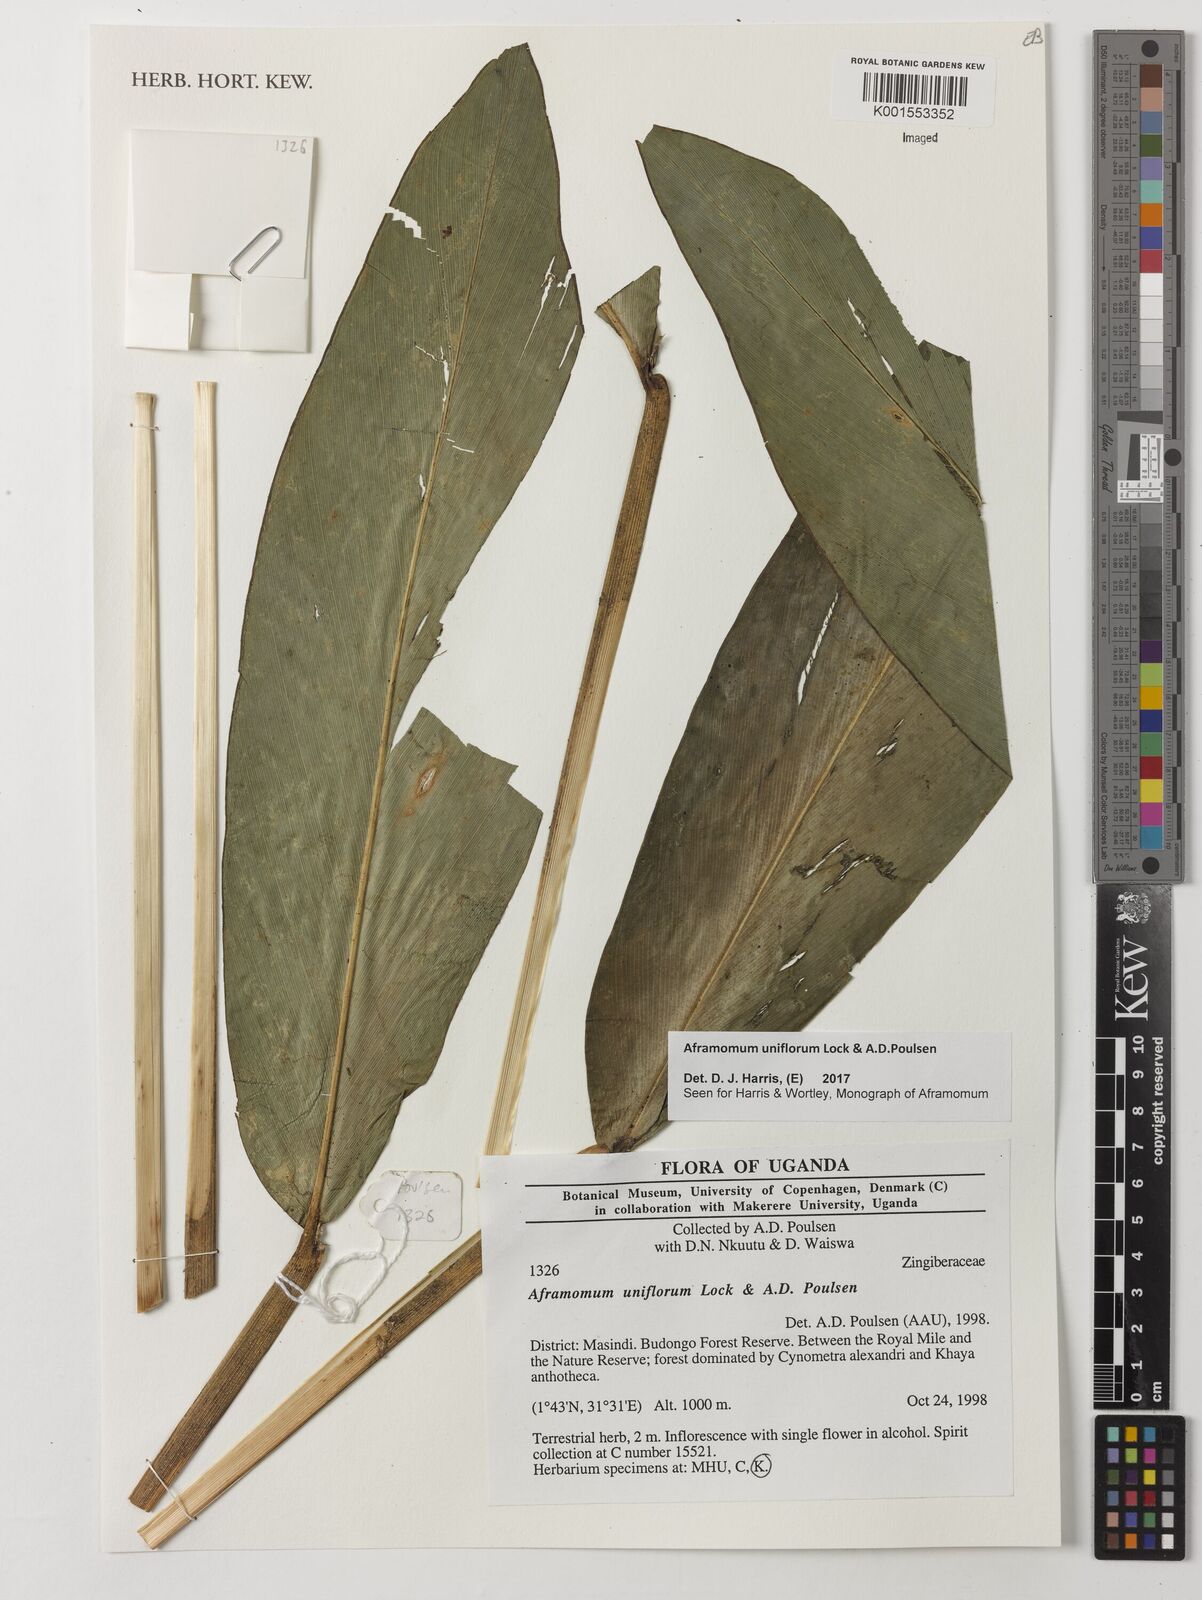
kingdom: Plantae
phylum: Tracheophyta
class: Liliopsida
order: Zingiberales
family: Zingiberaceae
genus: Aframomum
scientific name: Aframomum uniflorum
